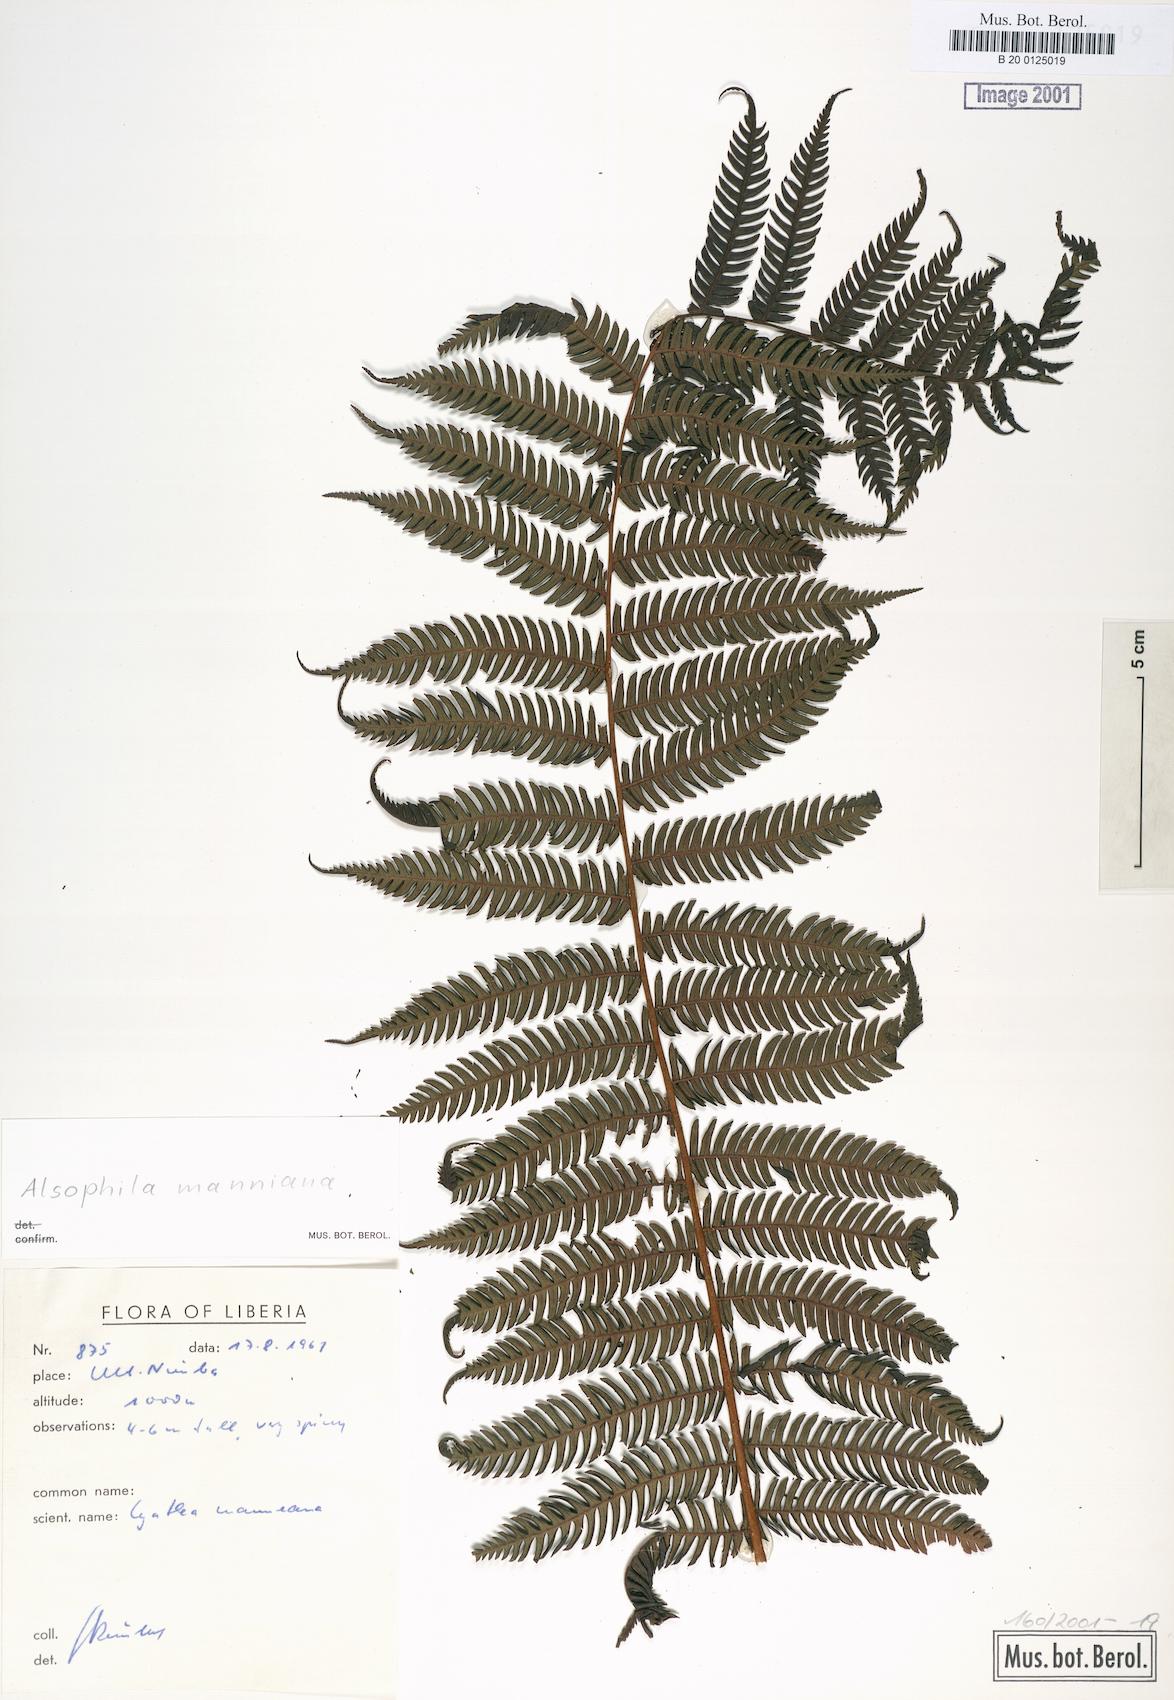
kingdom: Plantae
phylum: Tracheophyta
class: Polypodiopsida
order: Cyatheales
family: Cyatheaceae
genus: Alsophila
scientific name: Alsophila manniana
